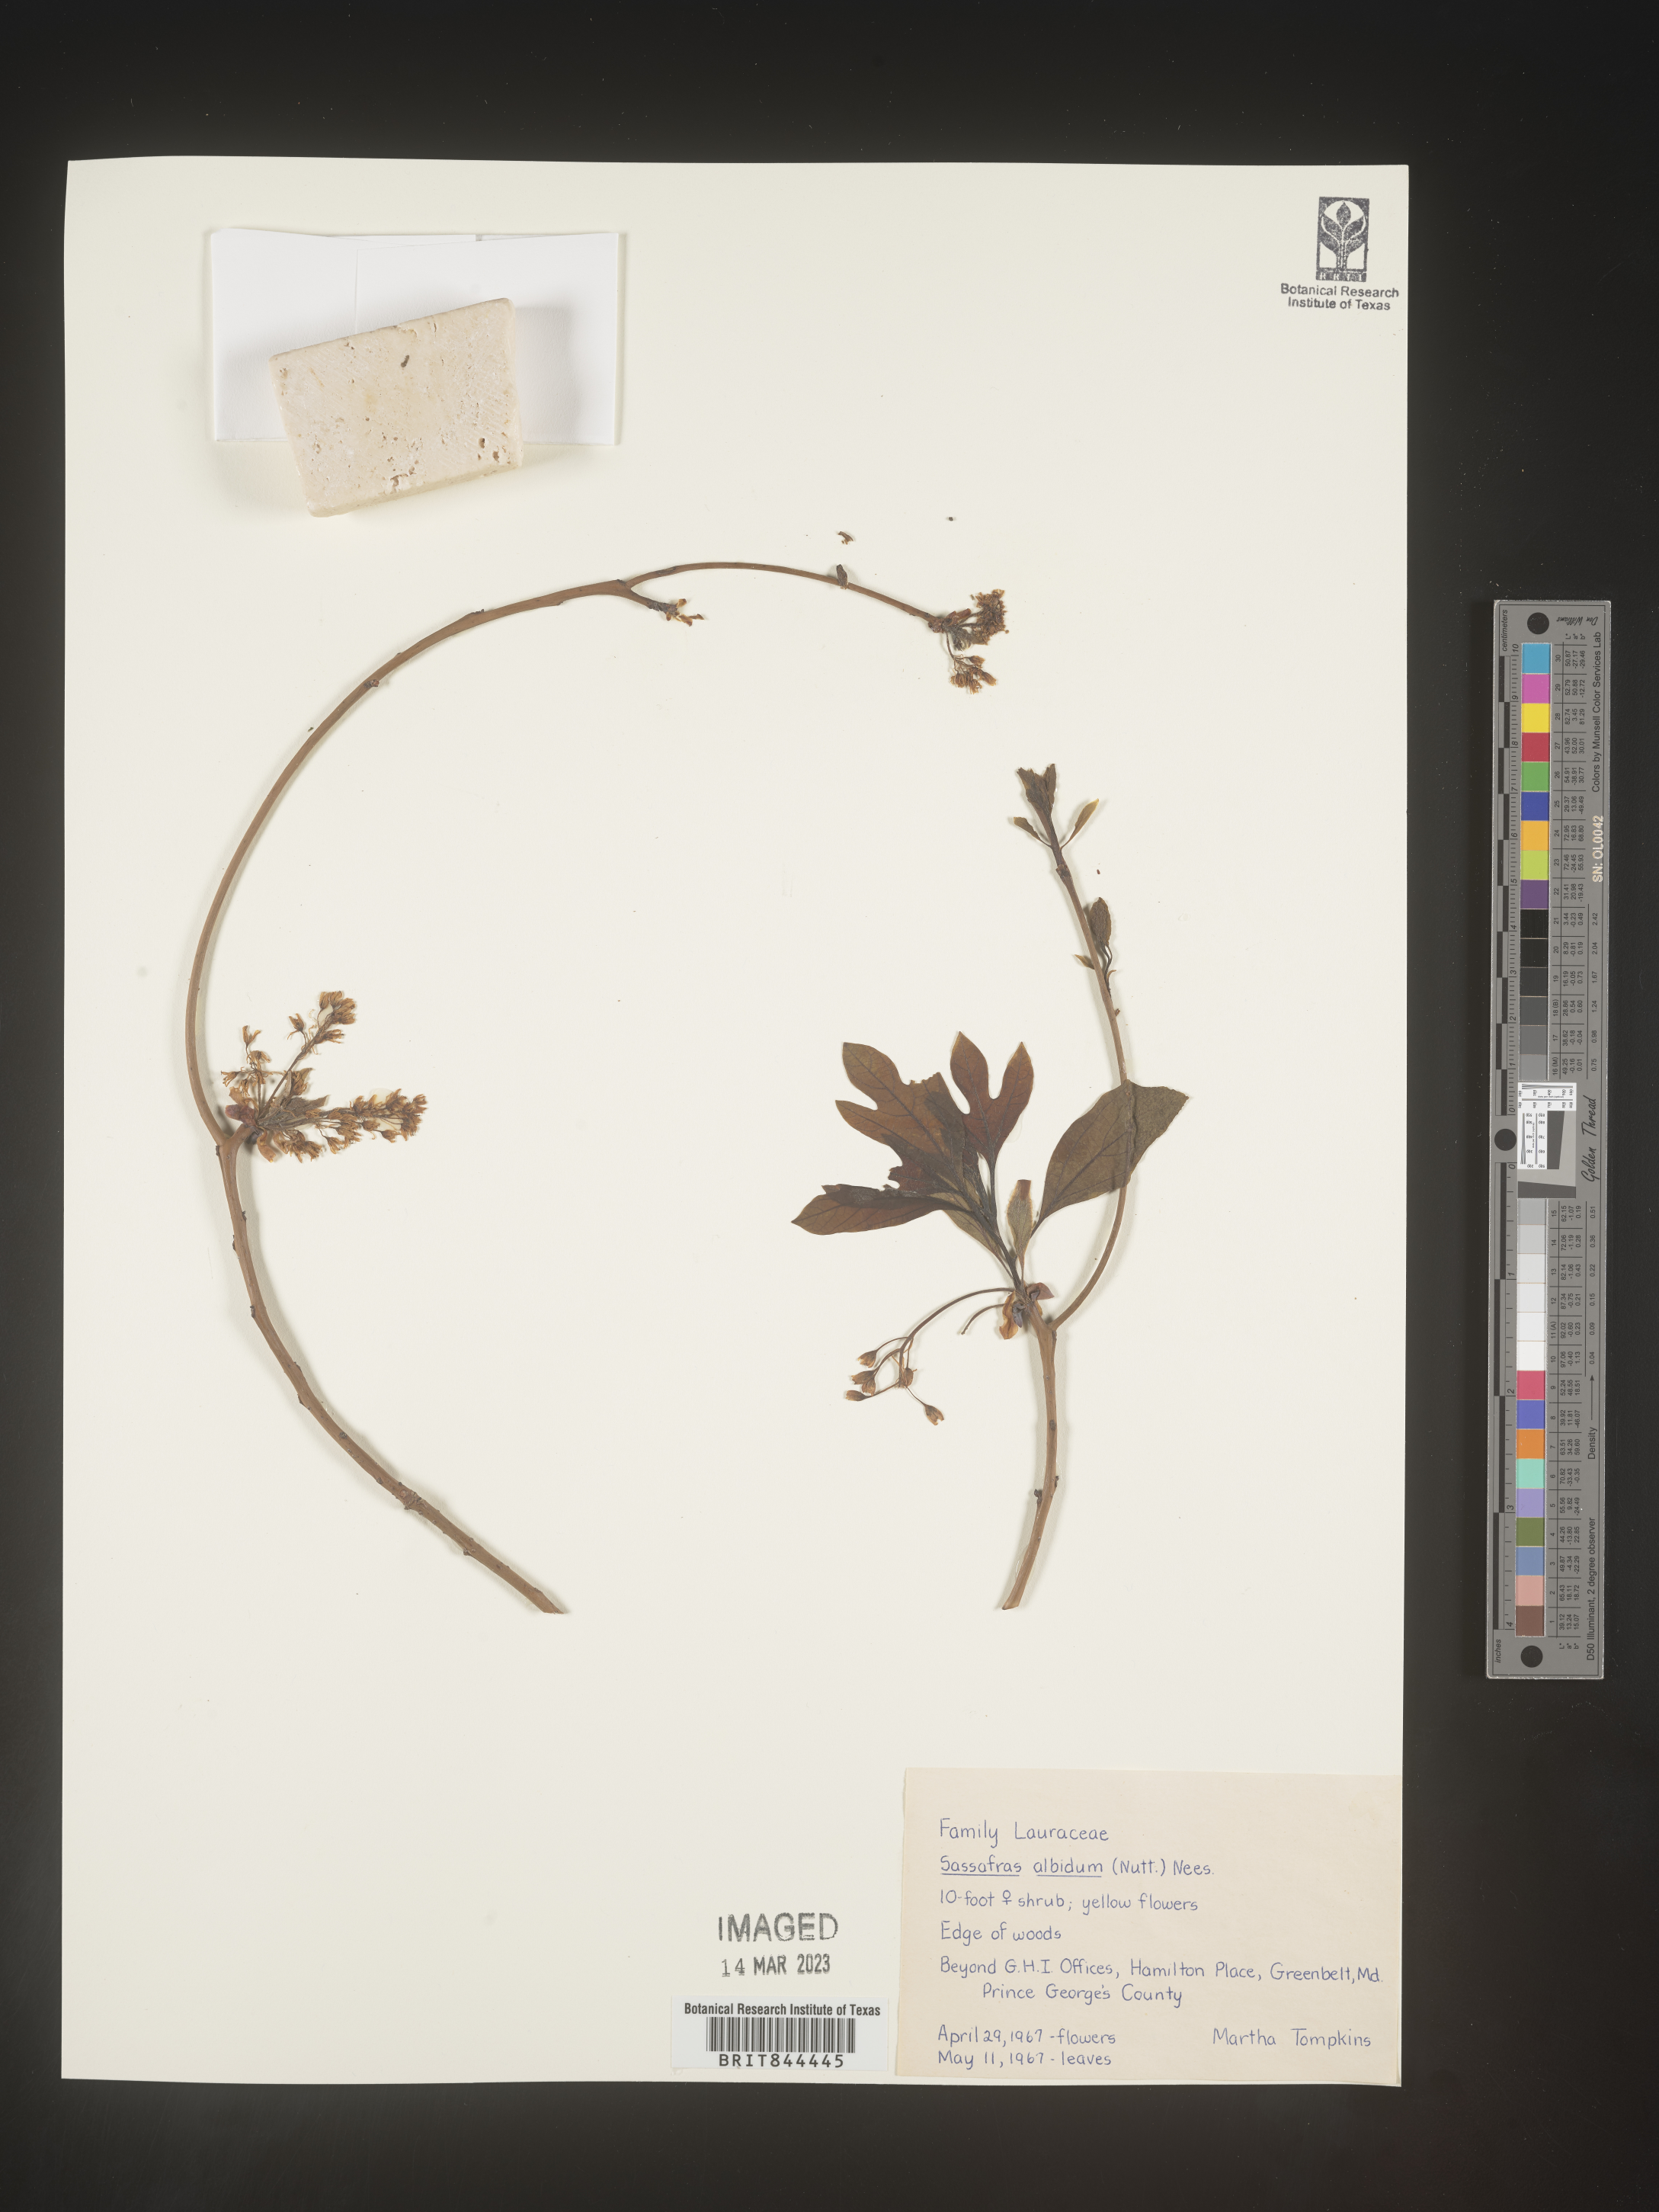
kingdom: Plantae
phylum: Tracheophyta
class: Magnoliopsida
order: Laurales
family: Lauraceae
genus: Sassafras
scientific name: Sassafras albidum
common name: Sassafras
